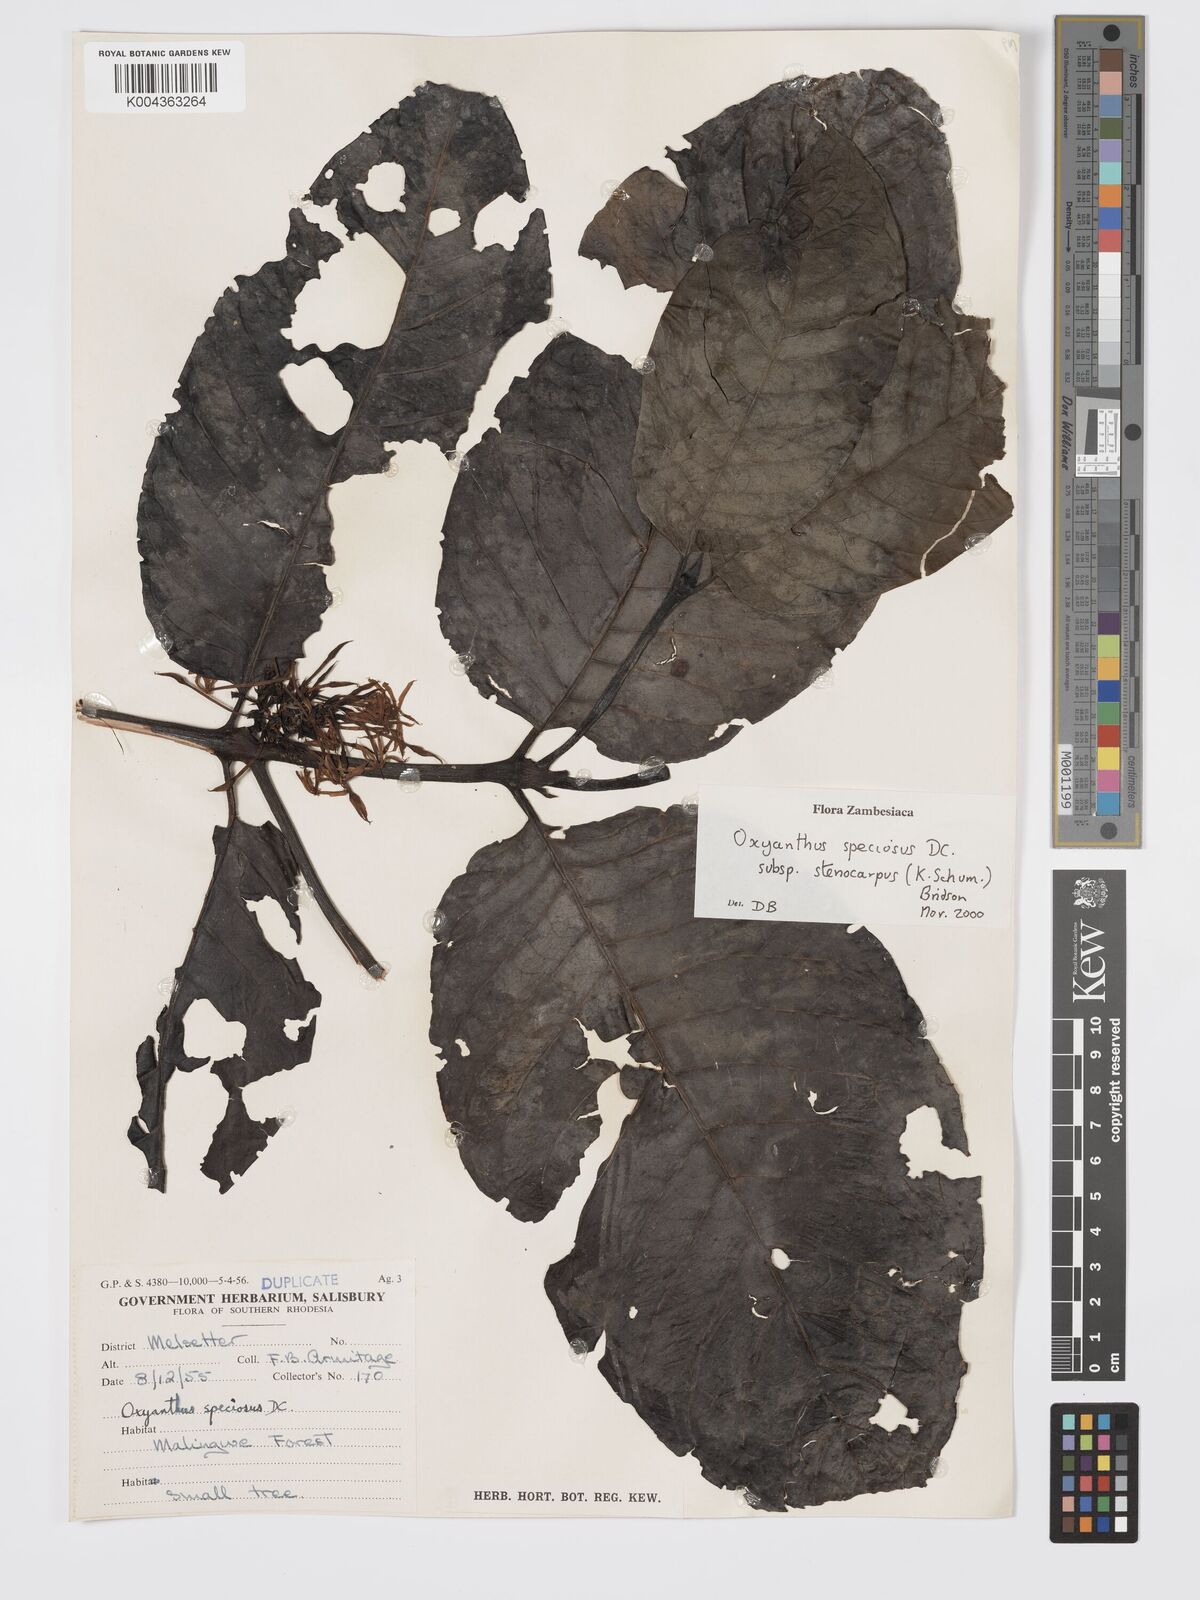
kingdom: Plantae
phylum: Tracheophyta
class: Magnoliopsida
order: Gentianales
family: Rubiaceae
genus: Oxyanthus
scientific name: Oxyanthus speciosus
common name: Whipstick loquat
